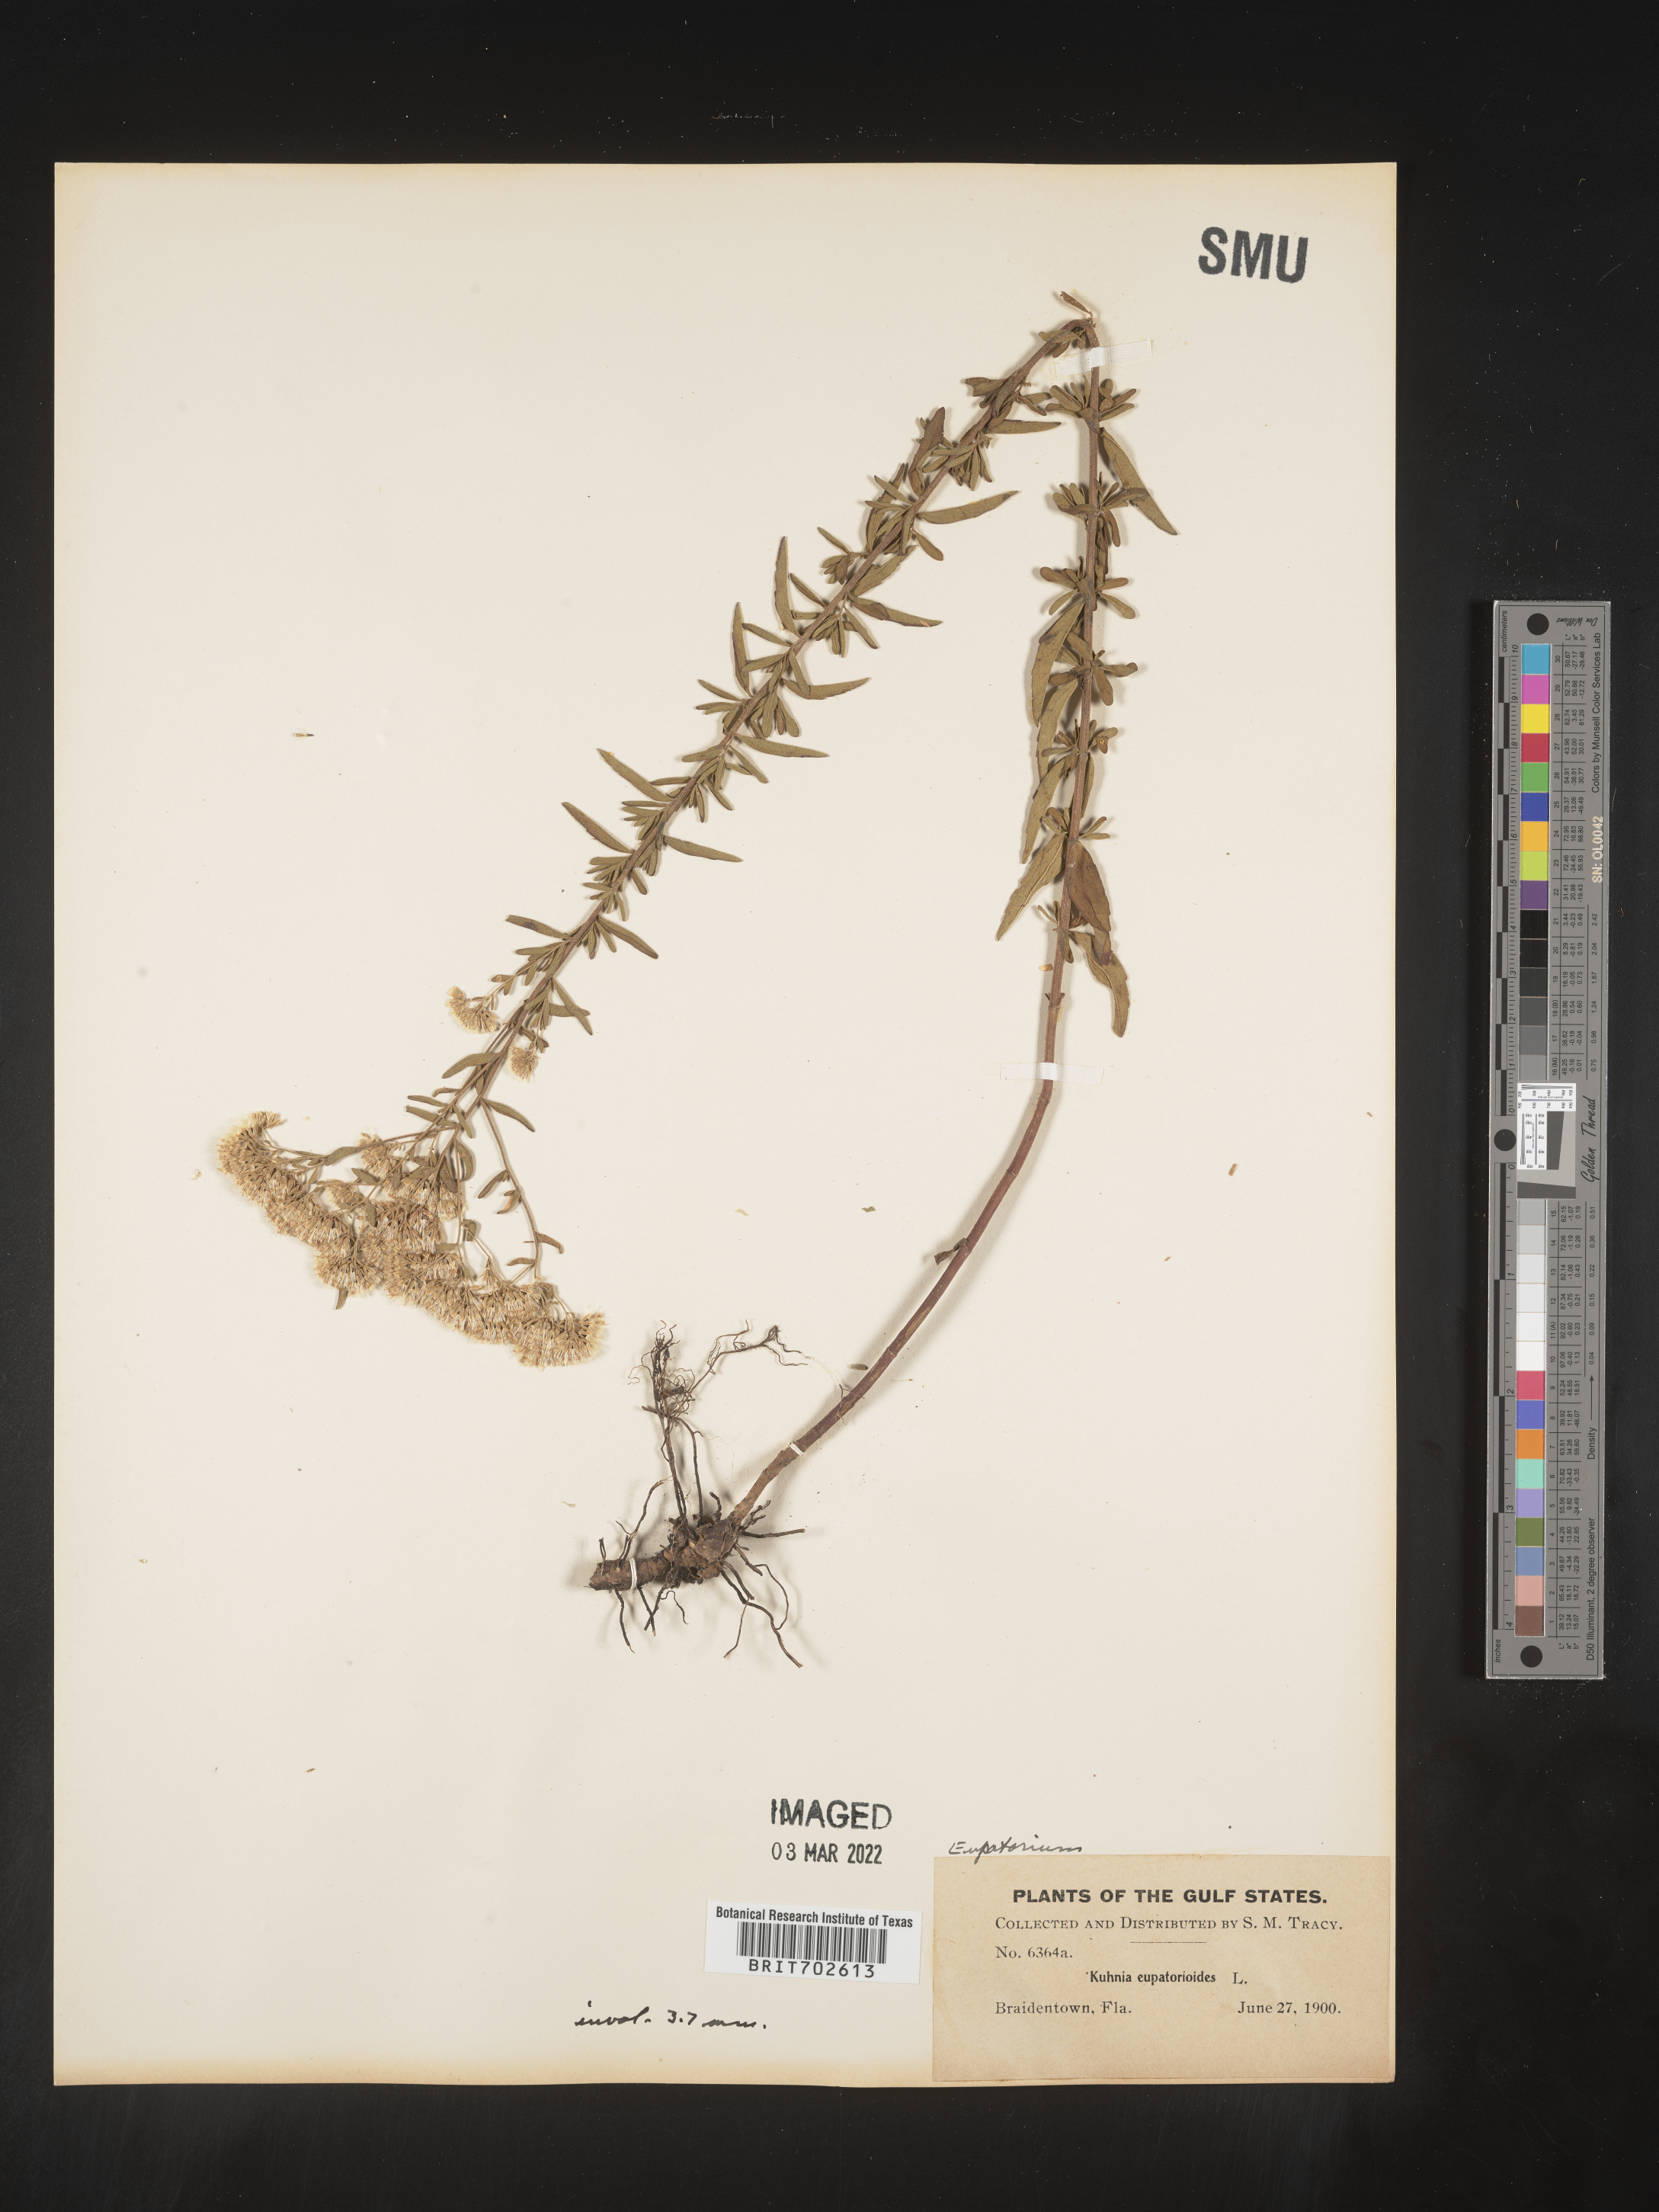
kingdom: Plantae
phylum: Tracheophyta
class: Magnoliopsida
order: Asterales
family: Asteraceae
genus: Eupatorium
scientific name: Eupatorium
